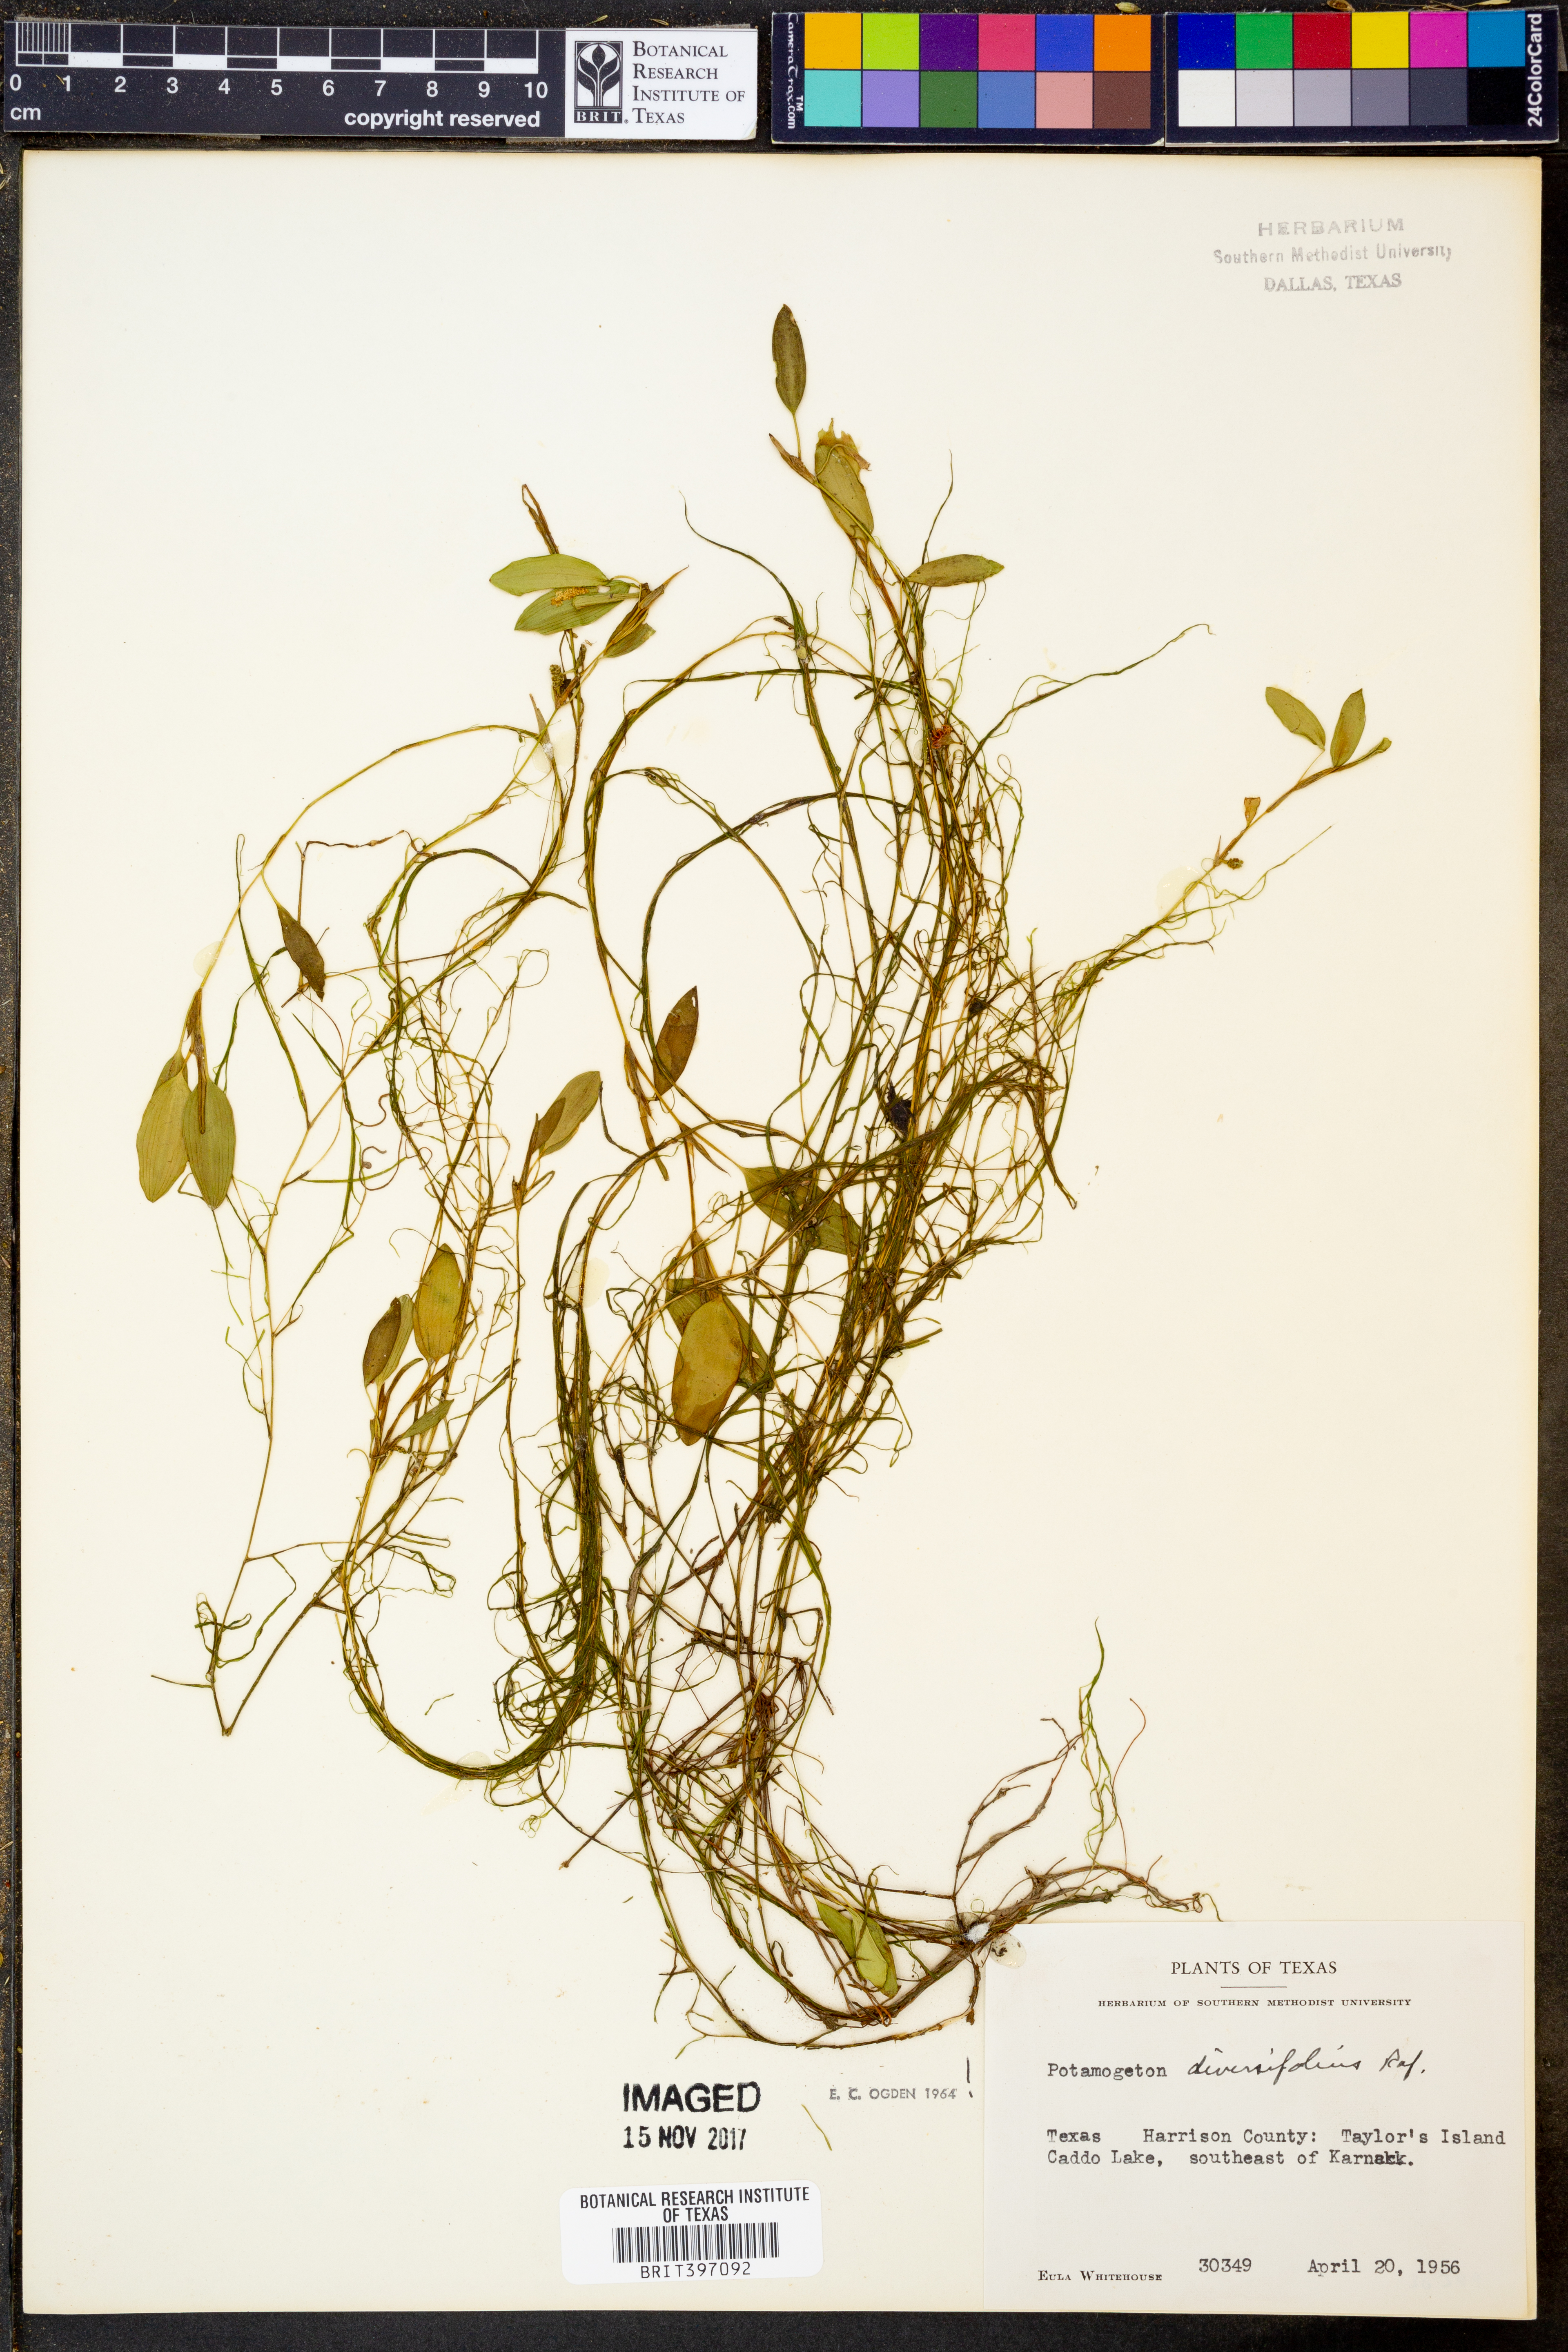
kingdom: Plantae
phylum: Tracheophyta
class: Liliopsida
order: Alismatales
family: Potamogetonaceae
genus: Potamogeton
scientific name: Potamogeton diversifolius
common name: Water-thread pondweed
